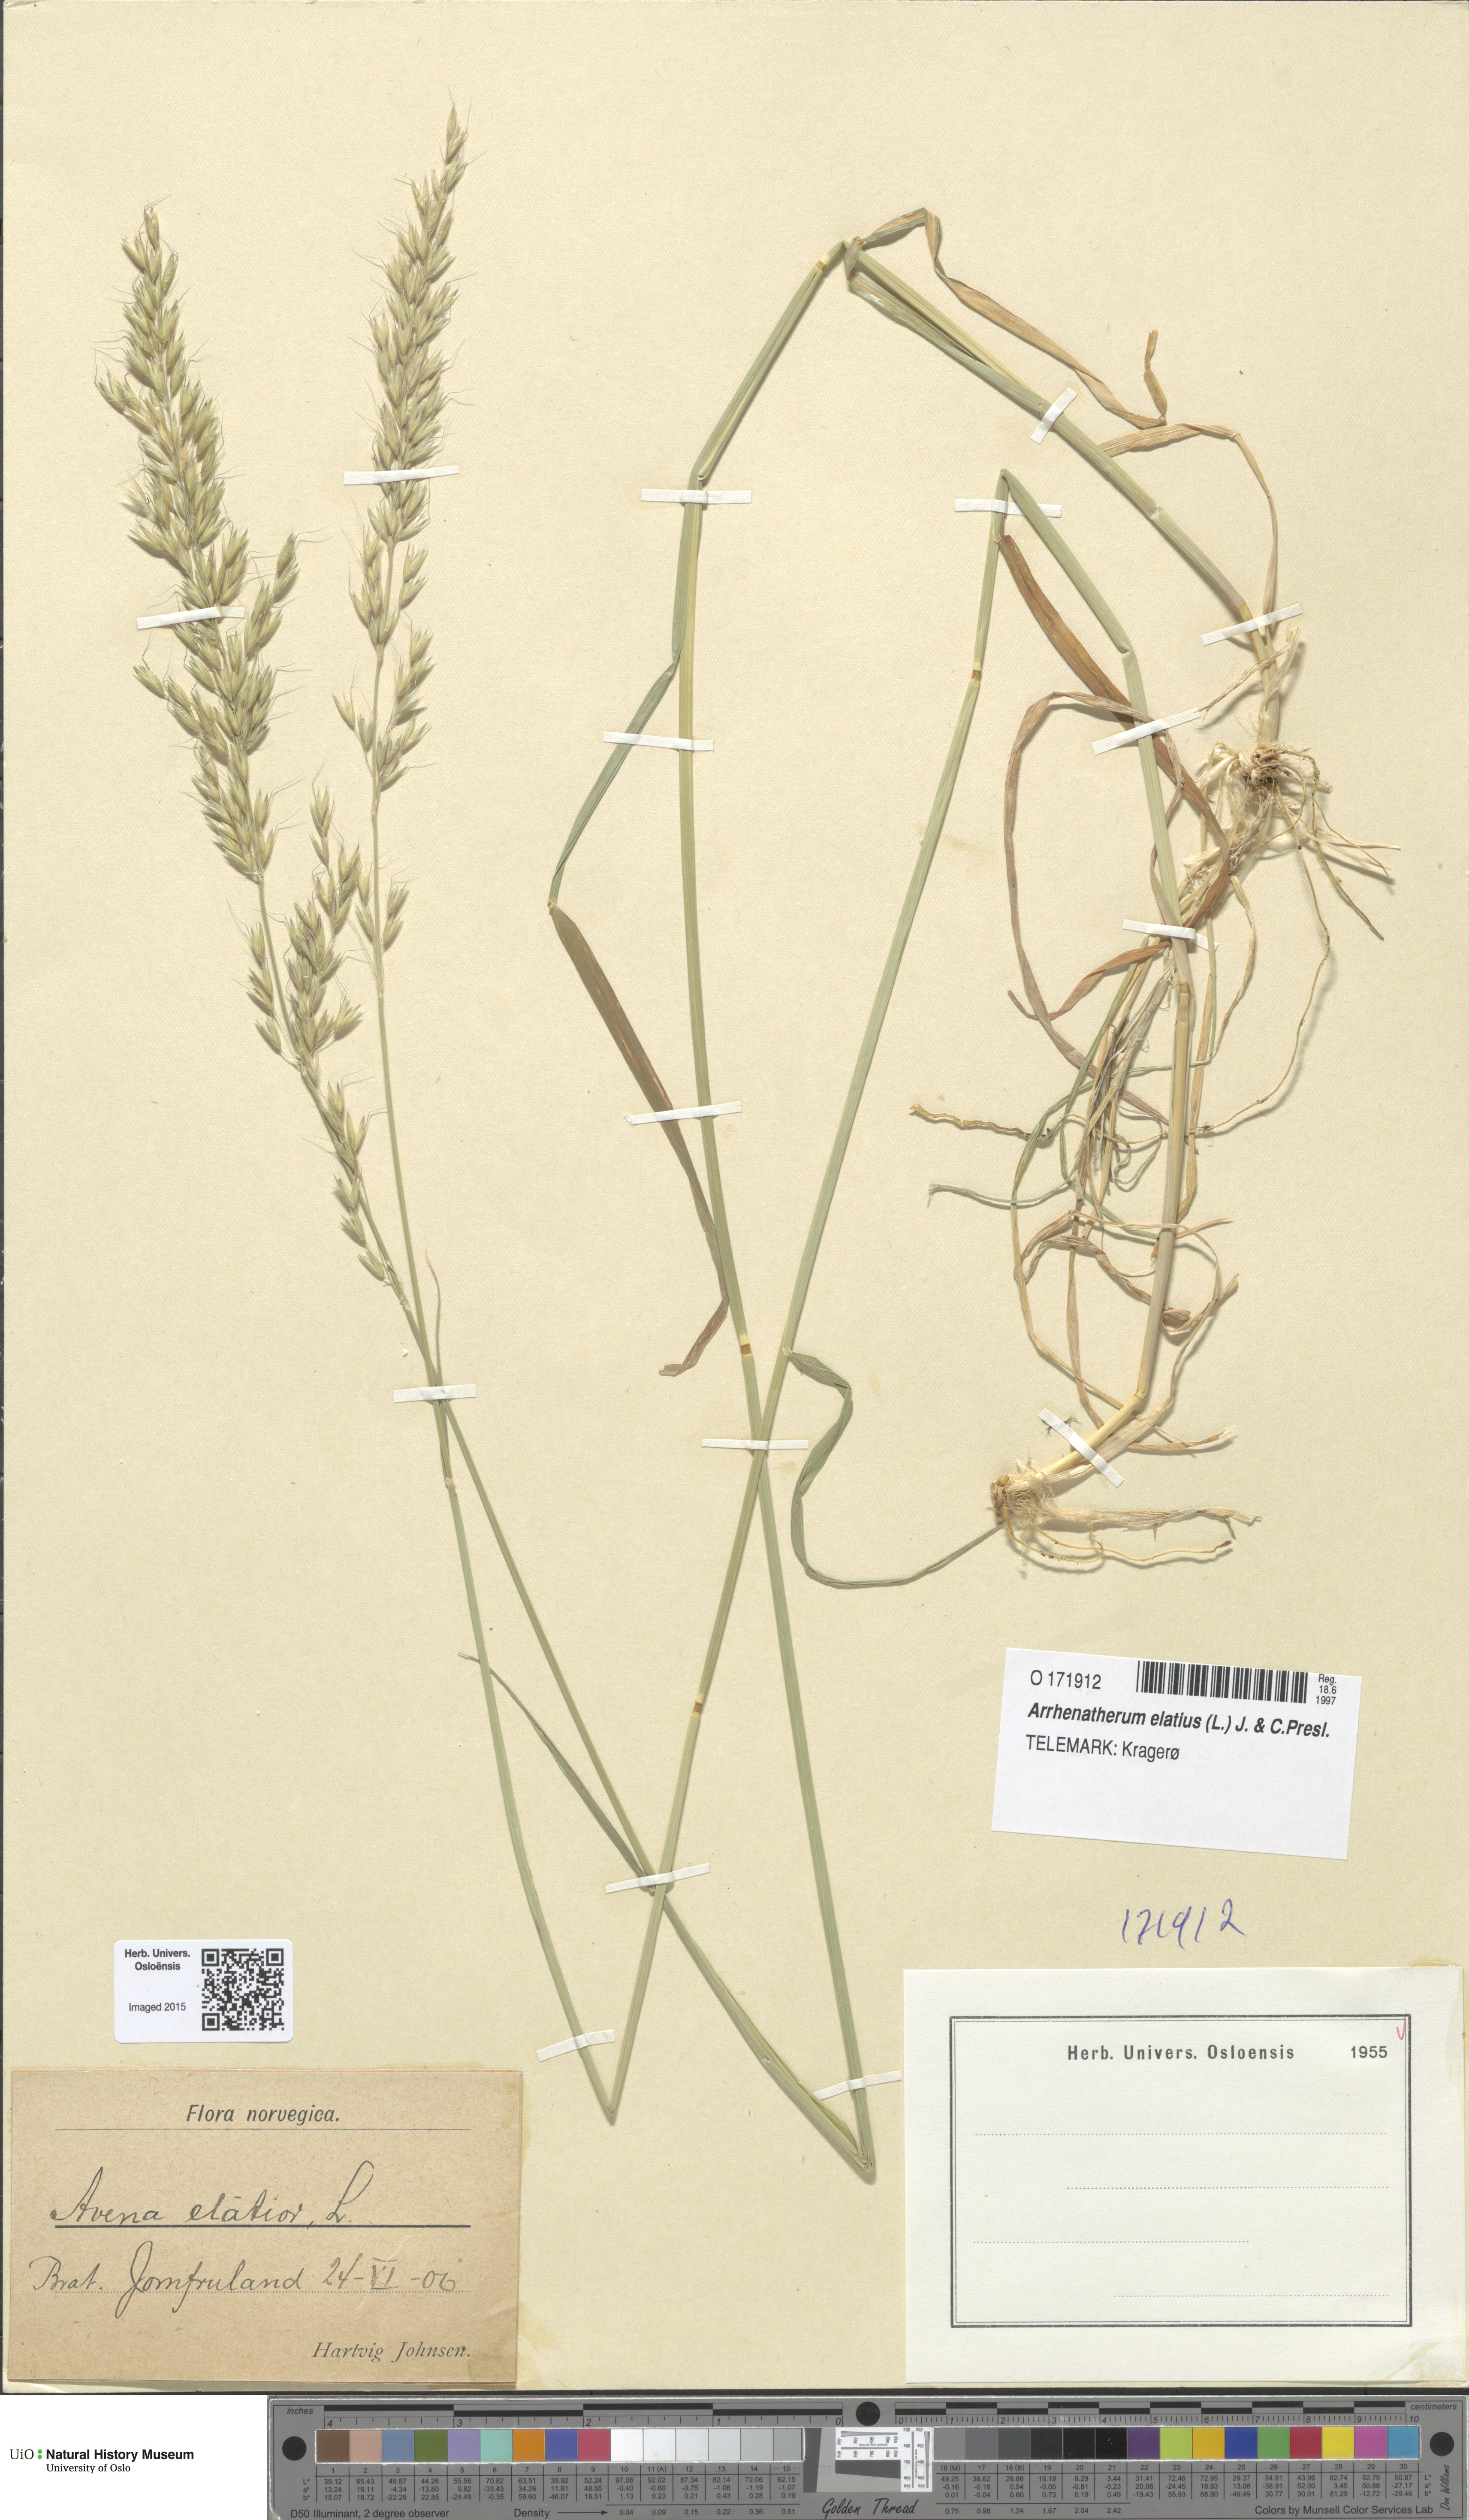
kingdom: Plantae
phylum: Tracheophyta
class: Liliopsida
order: Poales
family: Poaceae
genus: Arrhenatherum
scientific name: Arrhenatherum elatius
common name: Tall oatgrass
